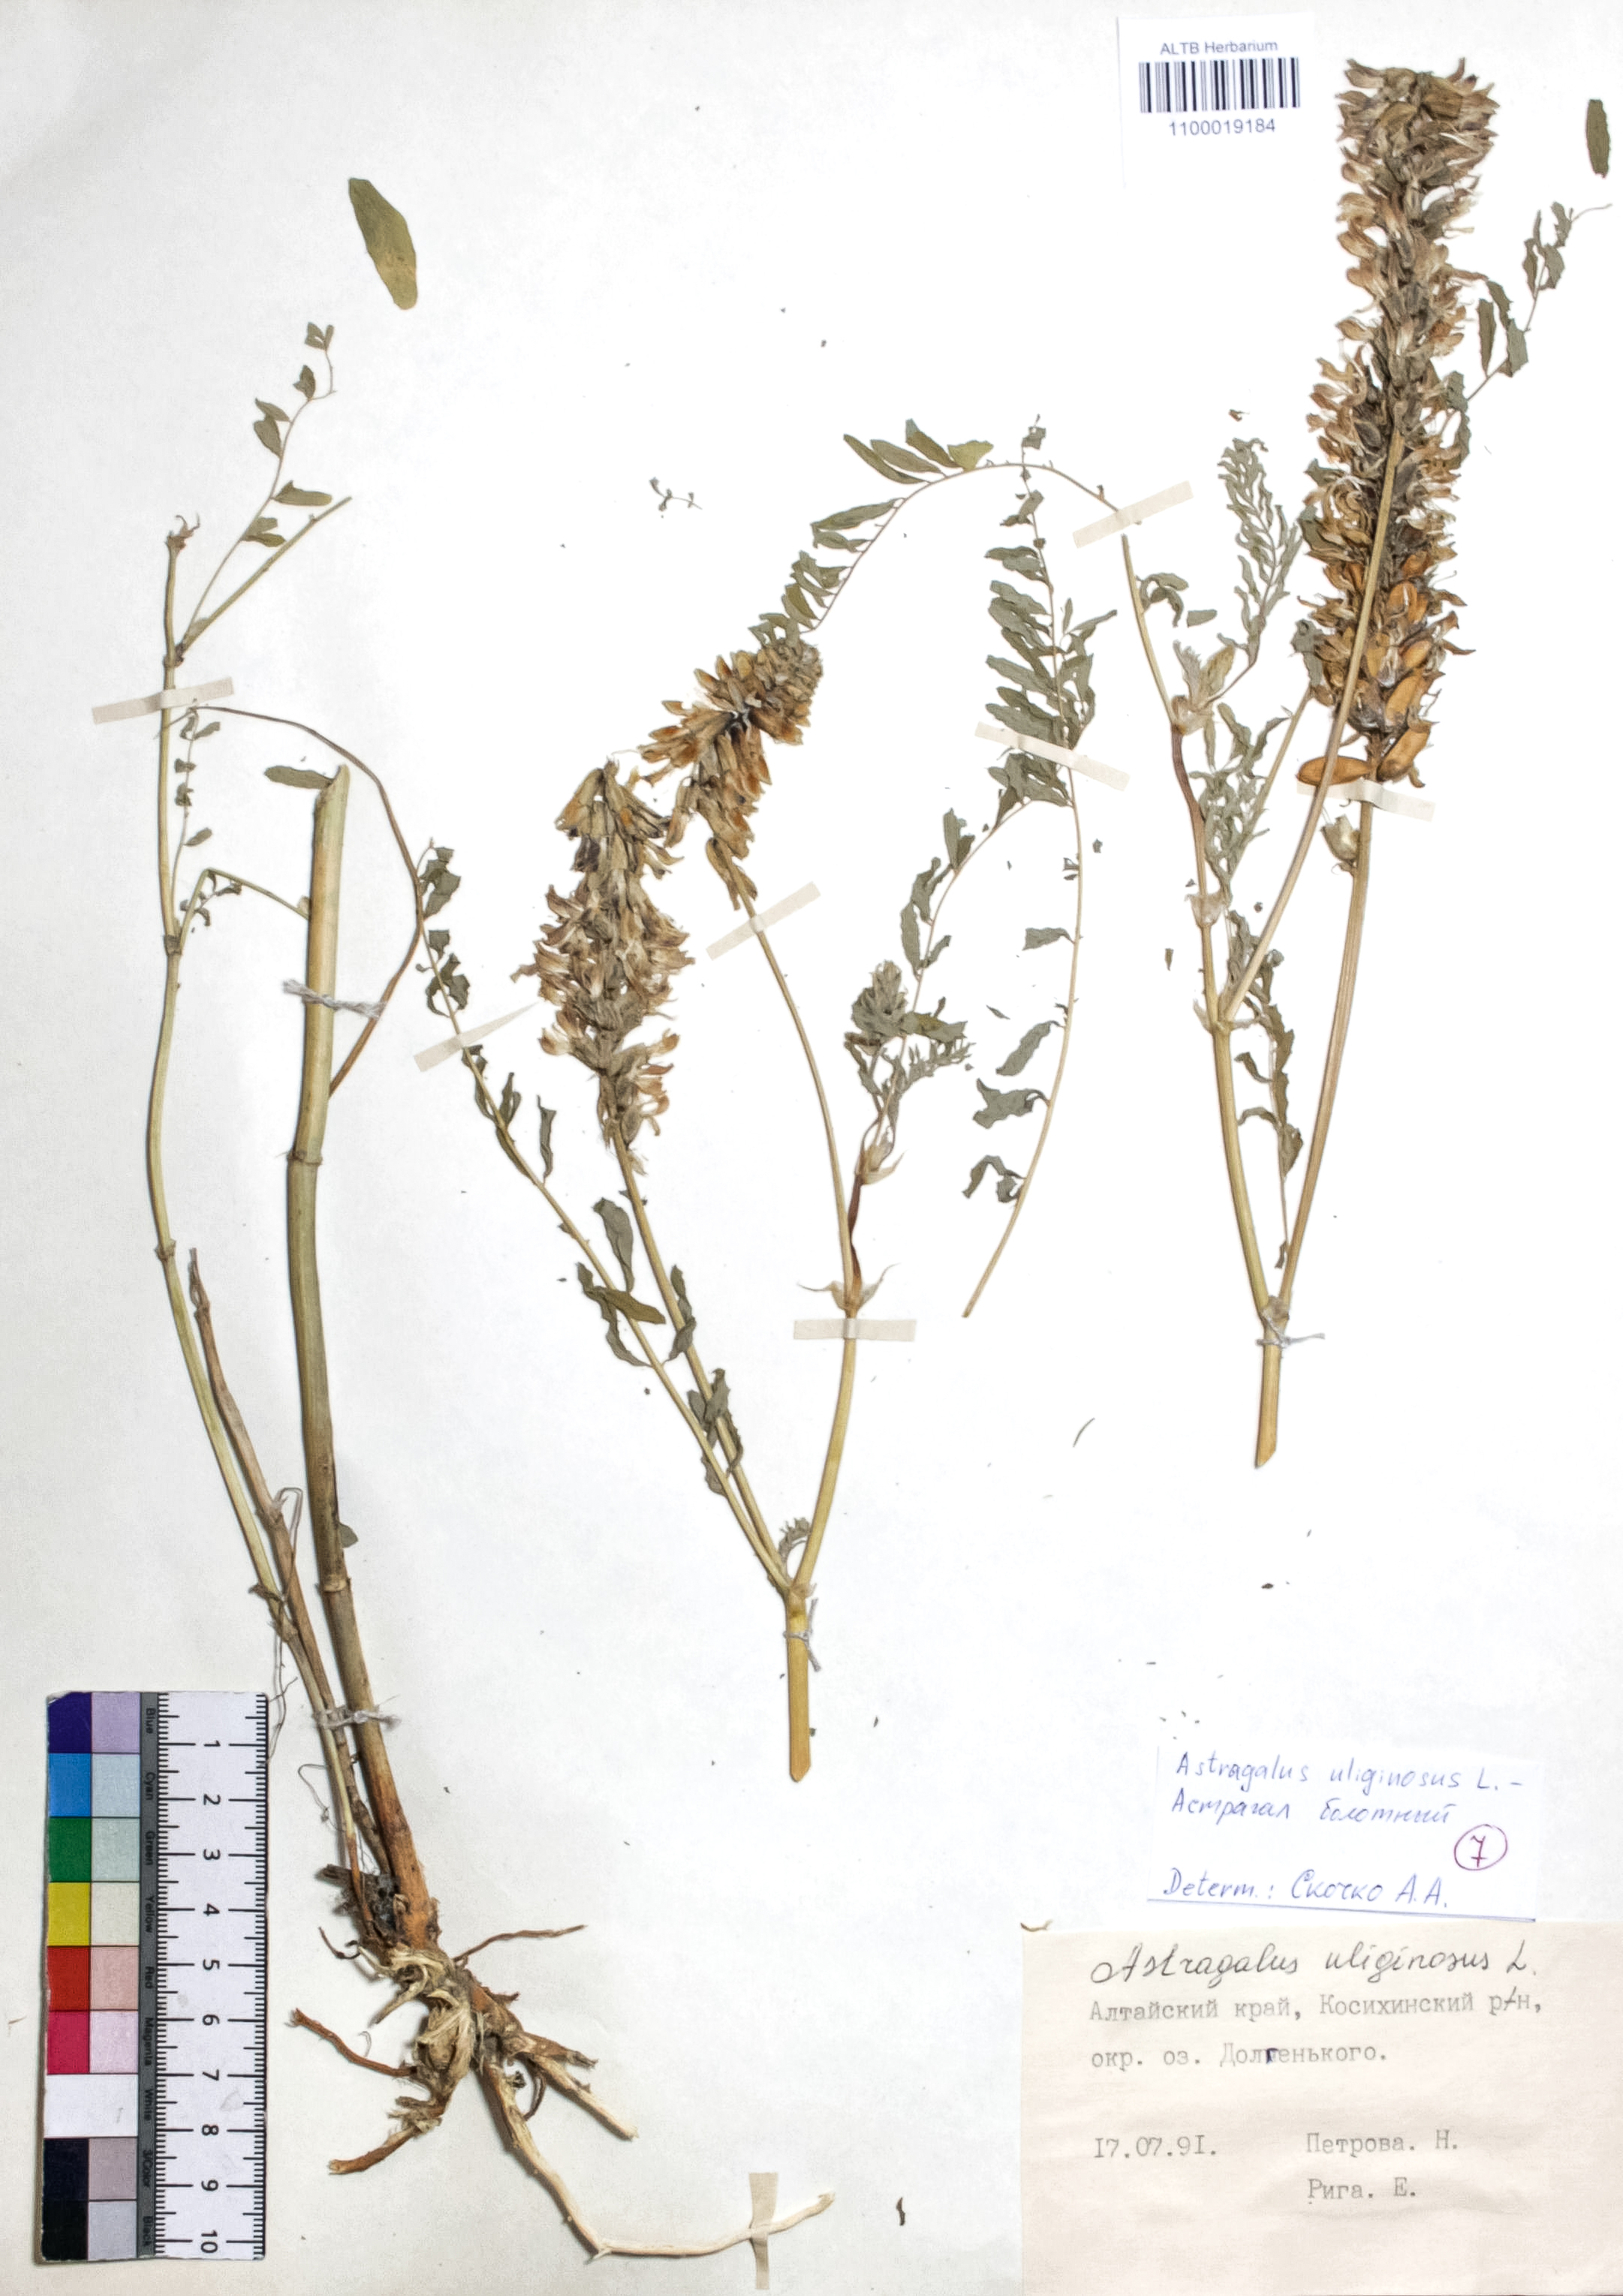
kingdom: Plantae
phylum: Tracheophyta
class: Magnoliopsida
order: Fabales
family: Fabaceae
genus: Astragalus
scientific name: Astragalus uliginosus
